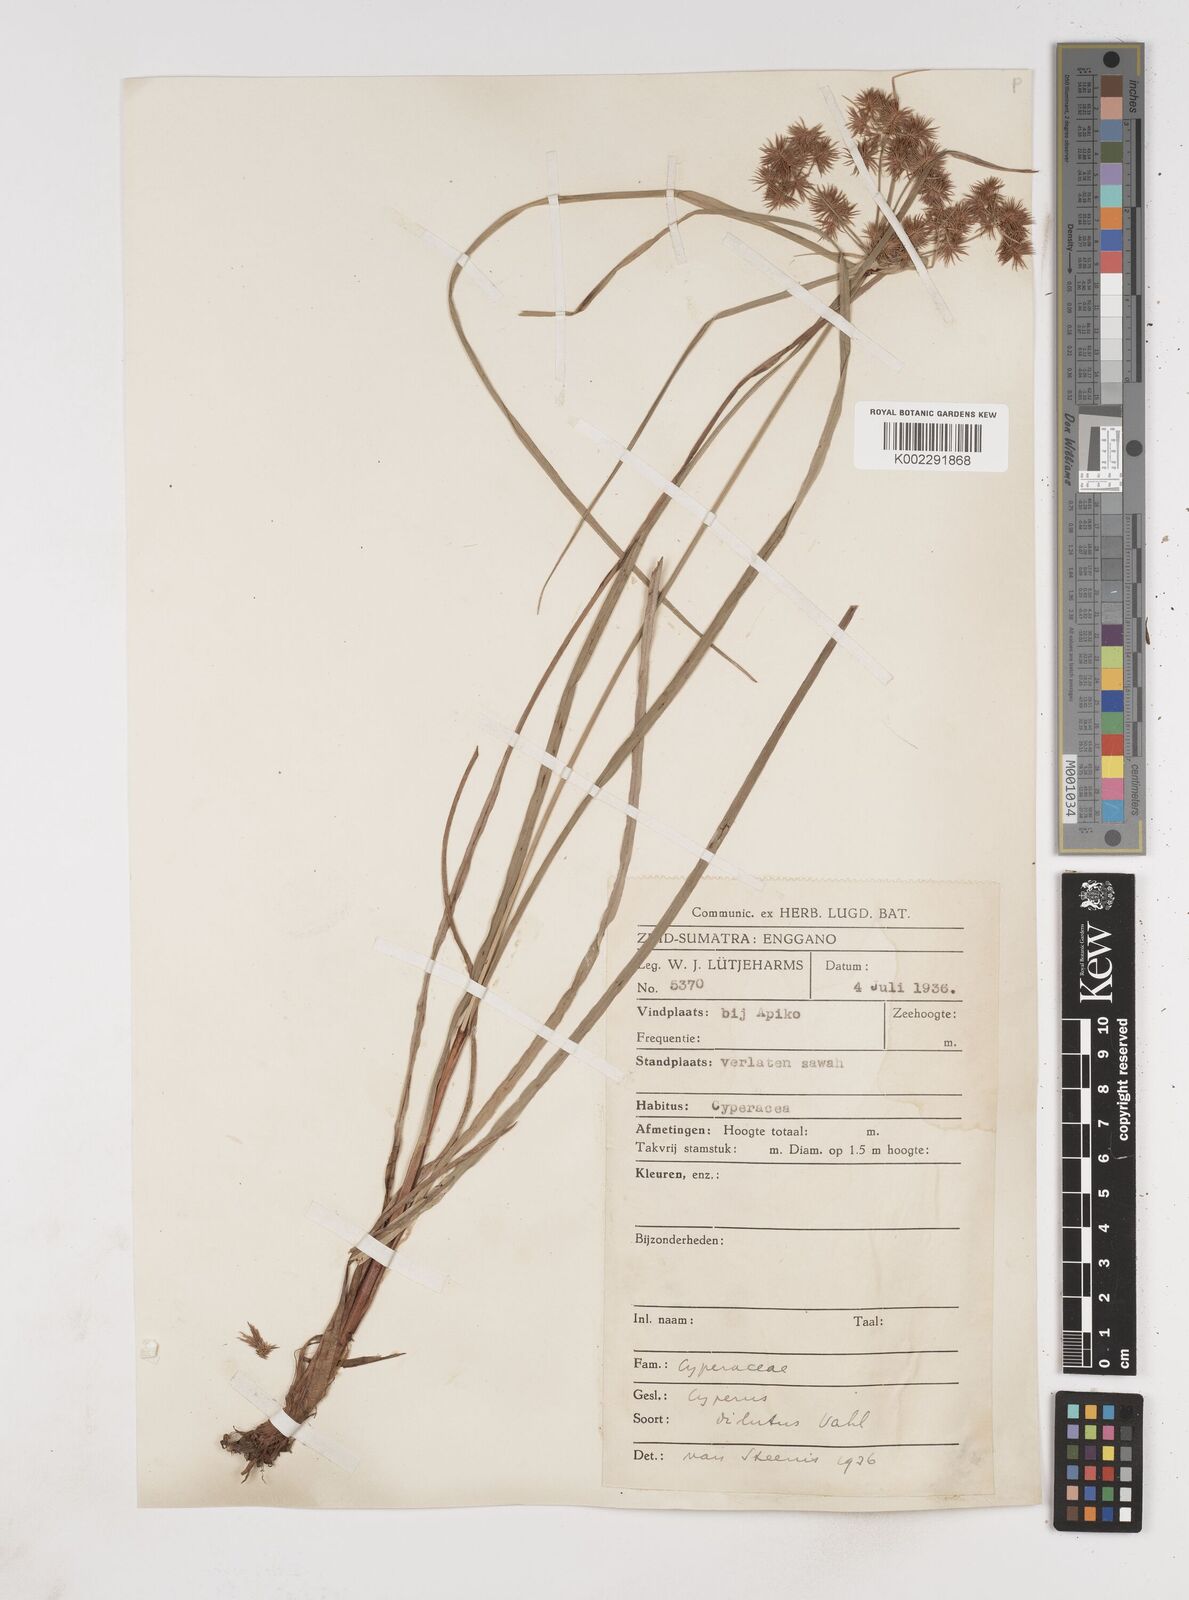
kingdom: Plantae
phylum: Tracheophyta
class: Liliopsida
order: Poales
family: Cyperaceae
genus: Cyperus
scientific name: Cyperus
